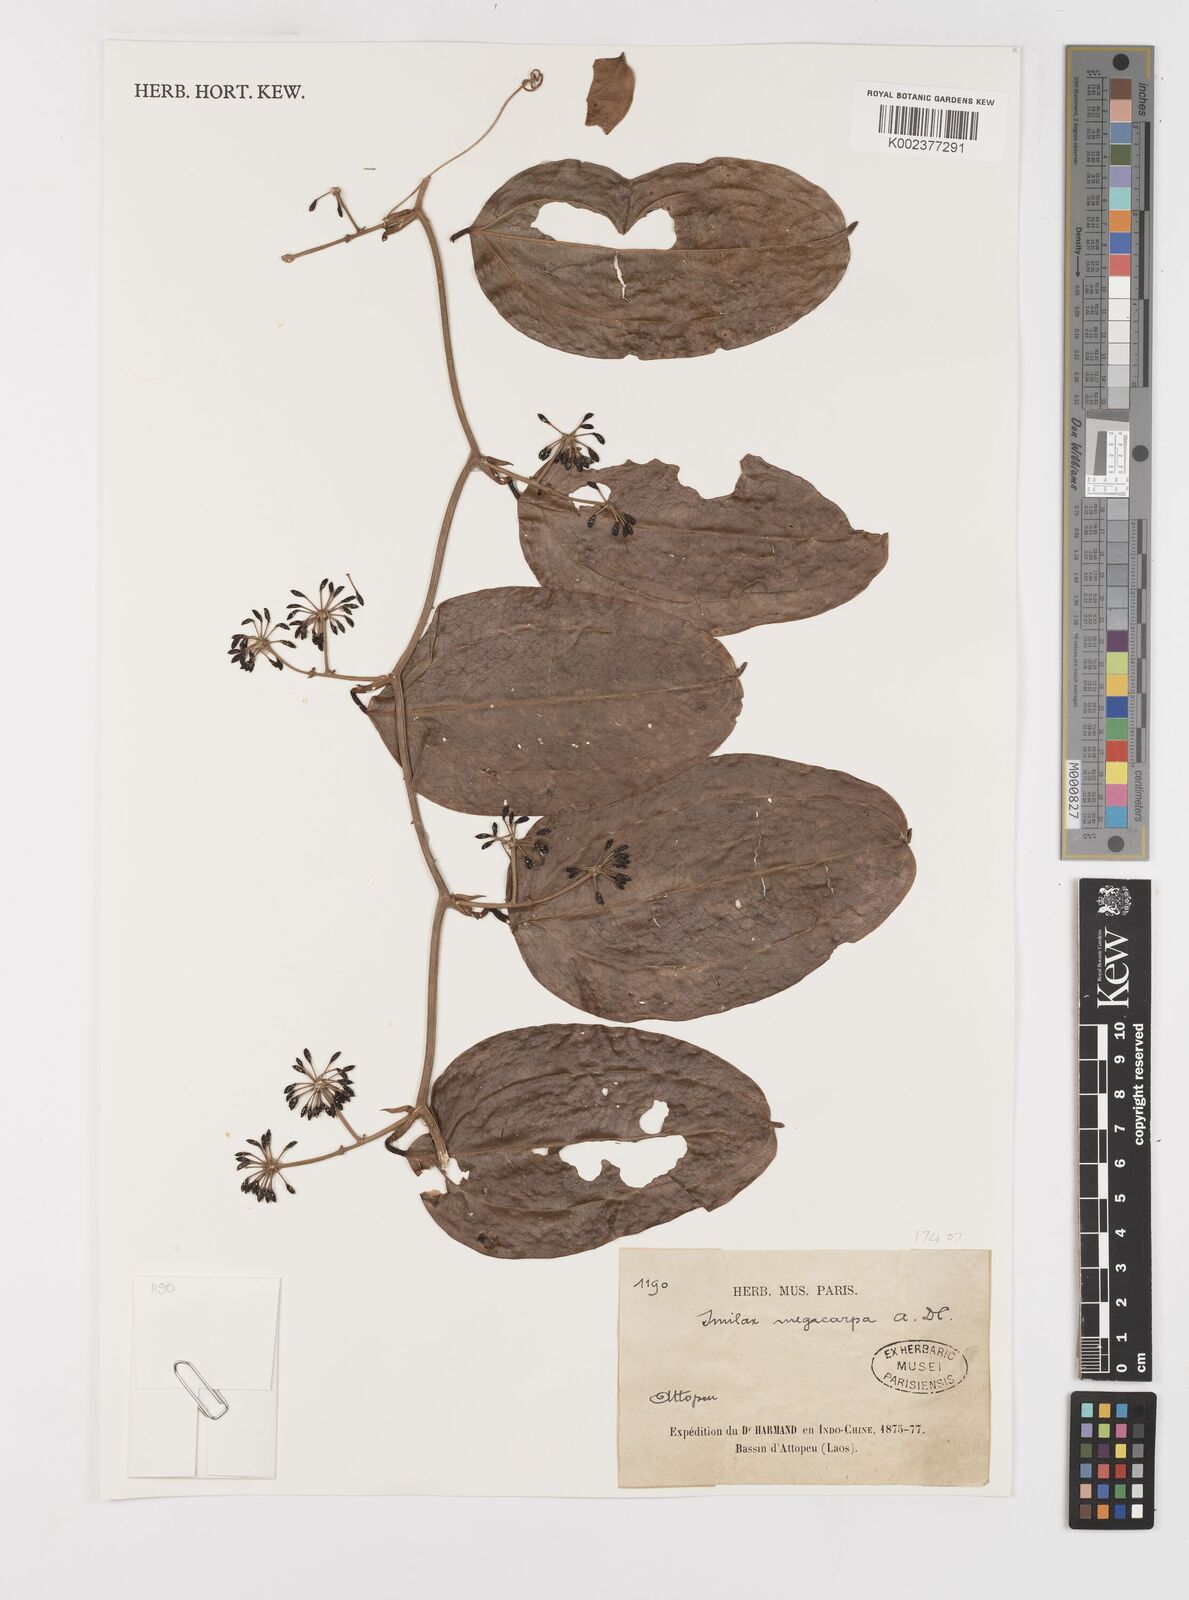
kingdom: Plantae
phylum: Tracheophyta
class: Liliopsida
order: Liliales
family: Smilacaceae
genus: Smilax
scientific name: Smilax megacarpa
